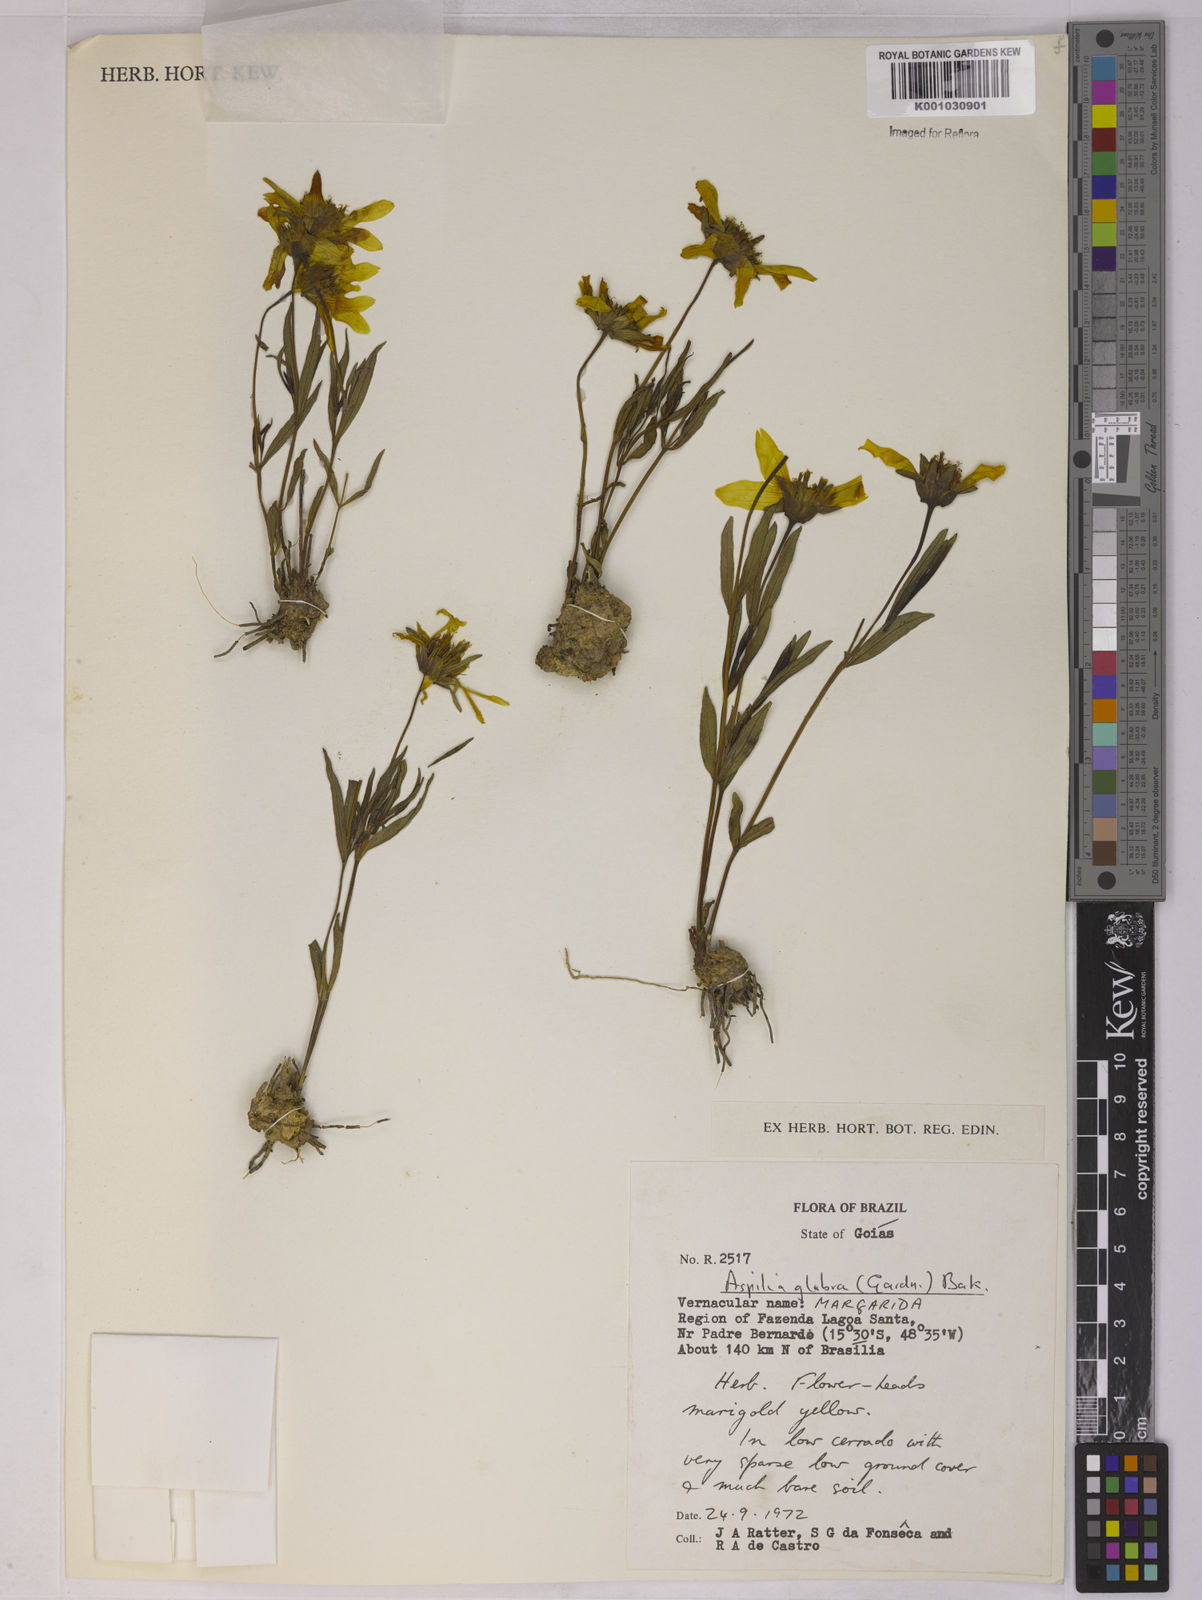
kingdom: Plantae
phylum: Tracheophyta
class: Magnoliopsida
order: Asterales
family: Asteraceae
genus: Aspilia
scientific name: Aspilia
